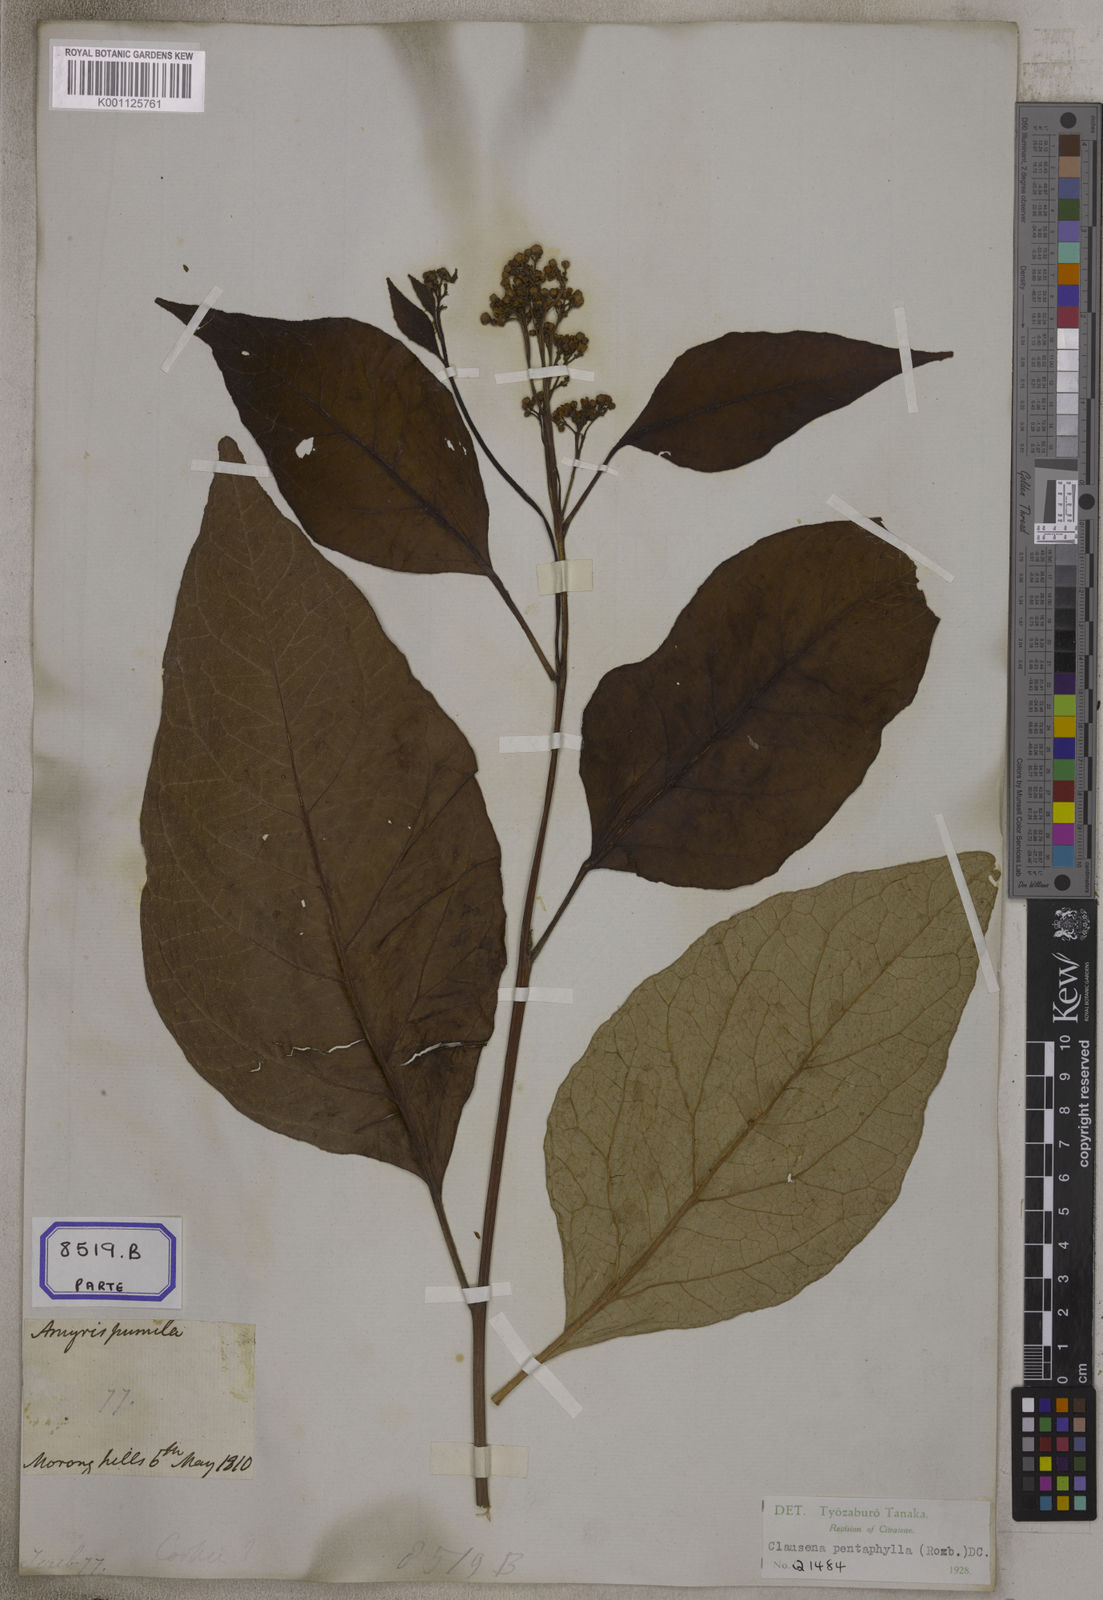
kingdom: Plantae
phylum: Tracheophyta
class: Magnoliopsida
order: Sapindales
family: Rutaceae
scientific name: Rutaceae
